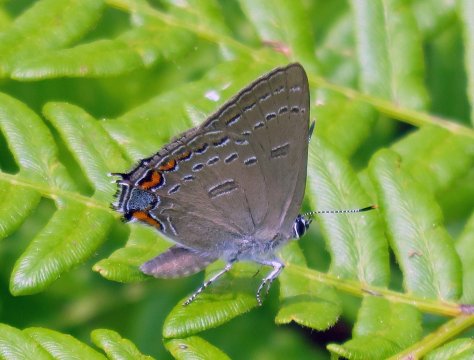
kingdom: Animalia
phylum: Arthropoda
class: Insecta
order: Lepidoptera
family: Lycaenidae
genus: Satyrium
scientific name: Satyrium edwardsii
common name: Edwards' Hairstreak
